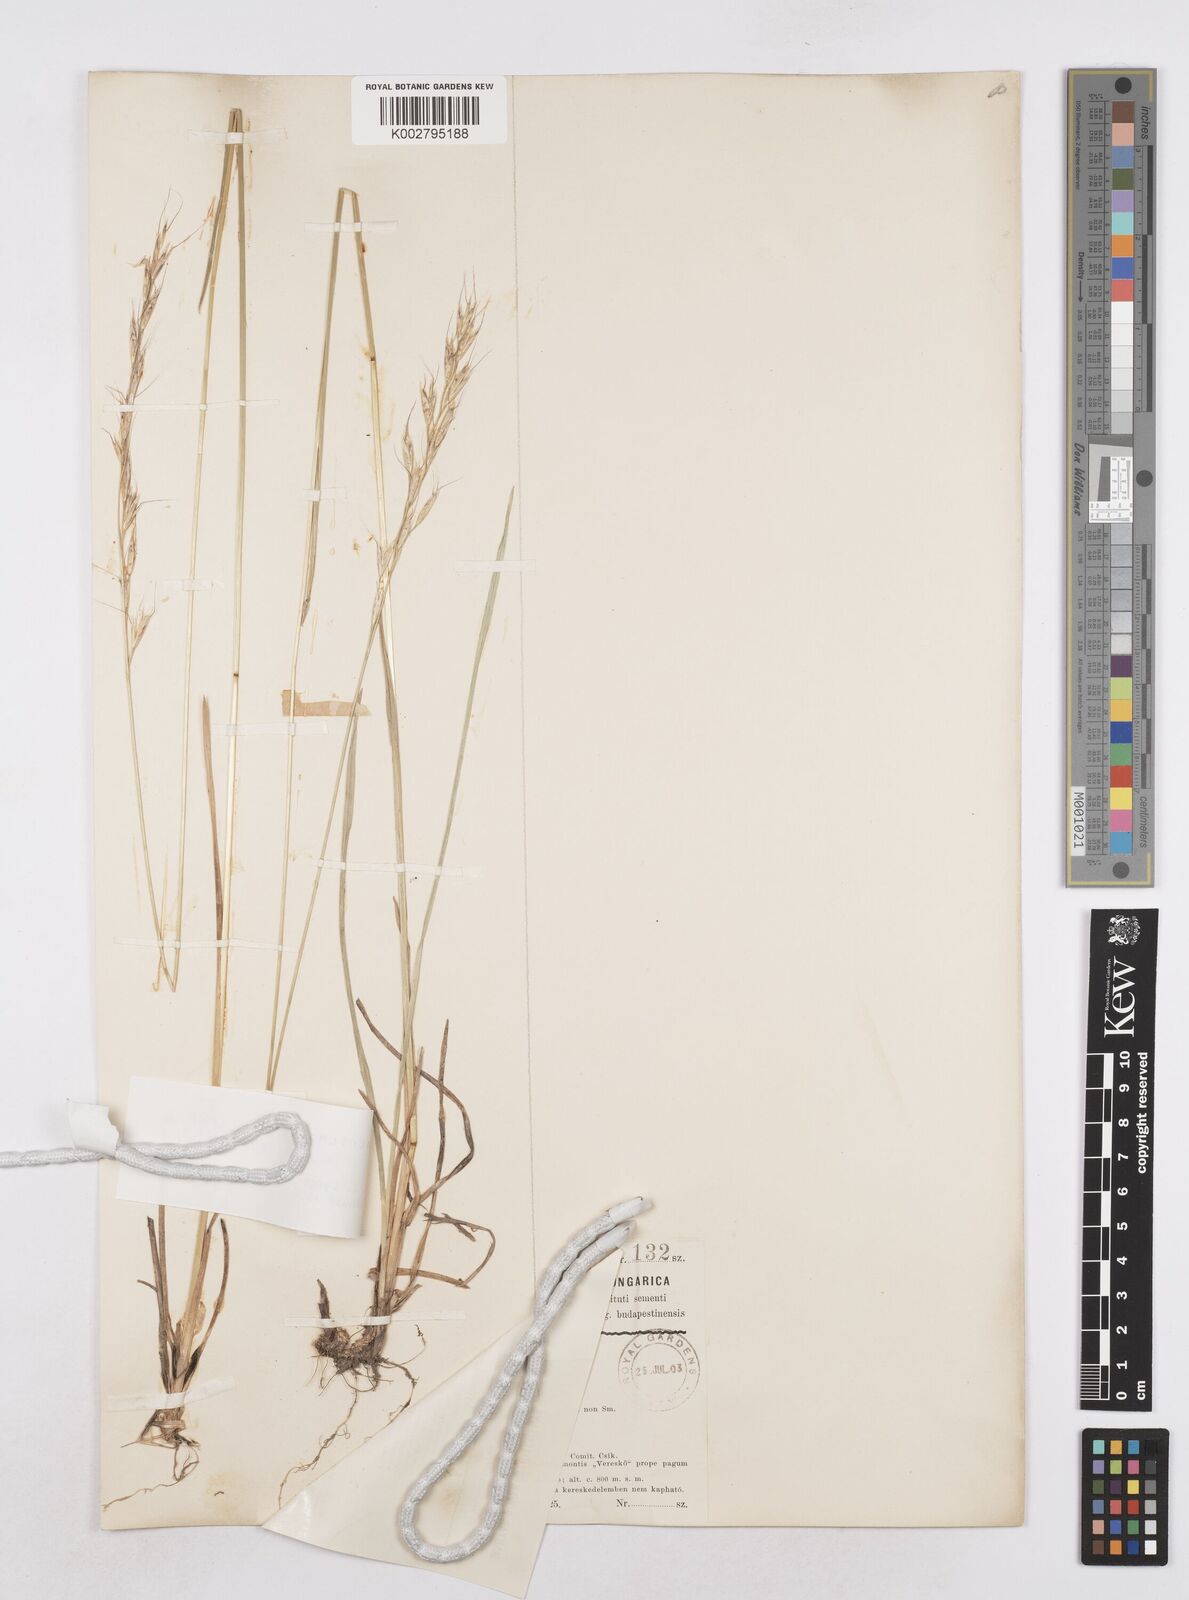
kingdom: Plantae
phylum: Tracheophyta
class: Liliopsida
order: Poales
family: Poaceae
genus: Helictochloa
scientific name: Helictochloa pratensis
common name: Meadow oat grass
